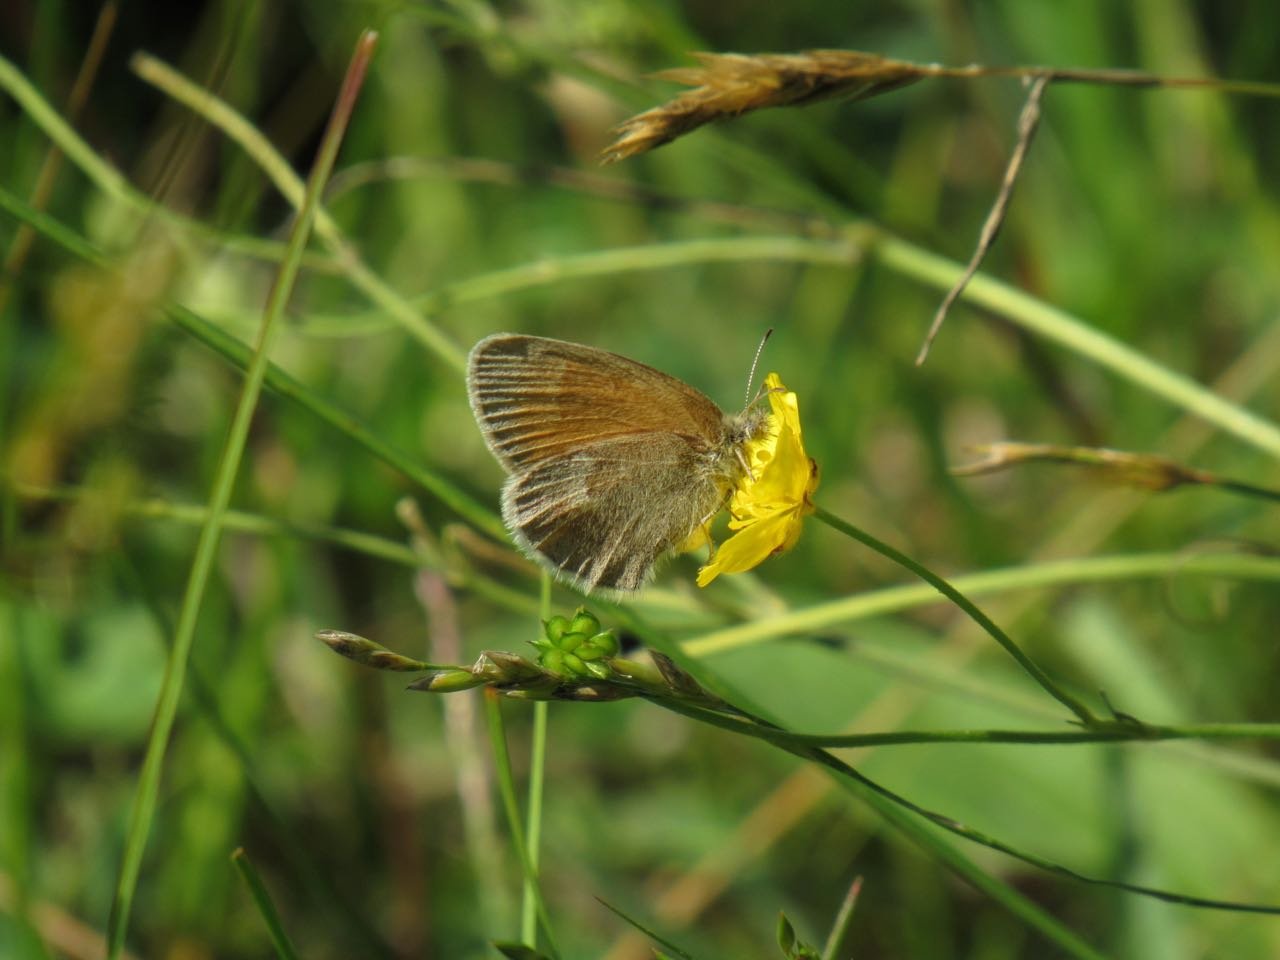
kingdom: Animalia
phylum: Arthropoda
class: Insecta
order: Lepidoptera
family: Nymphalidae
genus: Coenonympha
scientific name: Coenonympha tullia
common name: Large Heath
